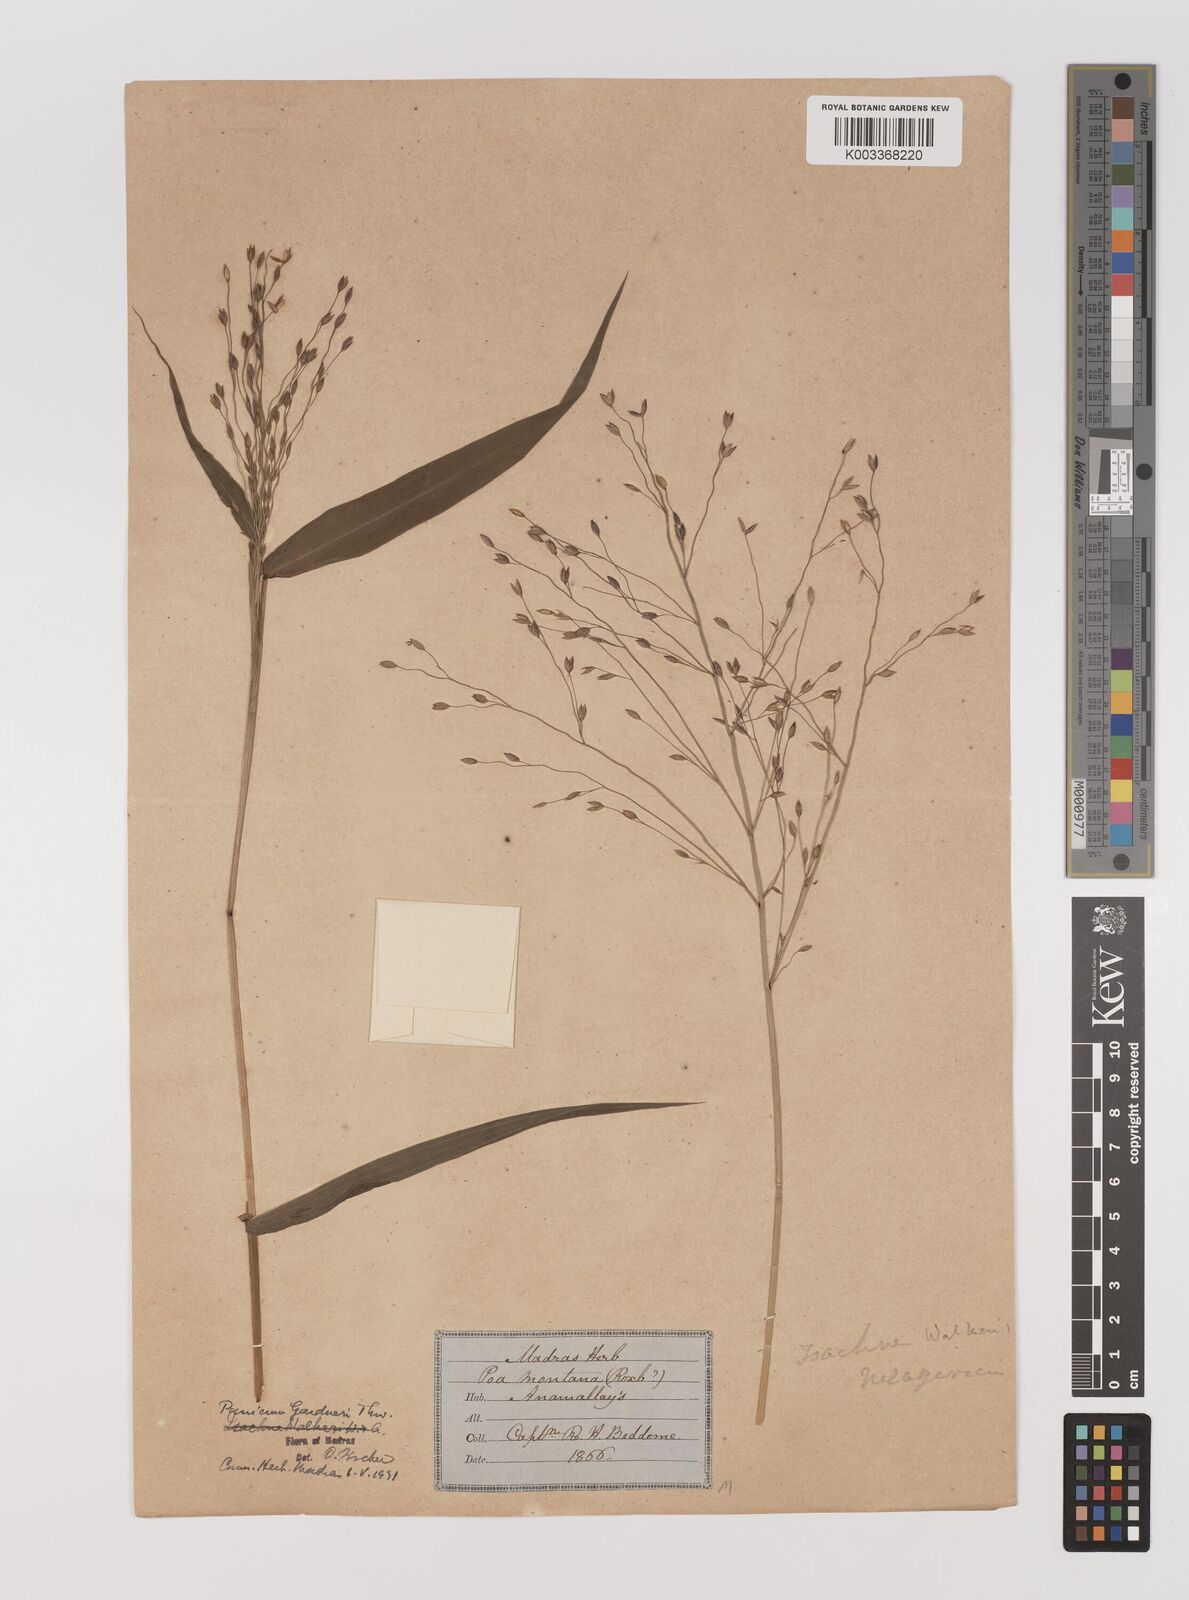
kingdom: Plantae
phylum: Tracheophyta
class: Liliopsida
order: Poales
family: Poaceae
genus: Panicum
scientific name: Panicum gardneri
